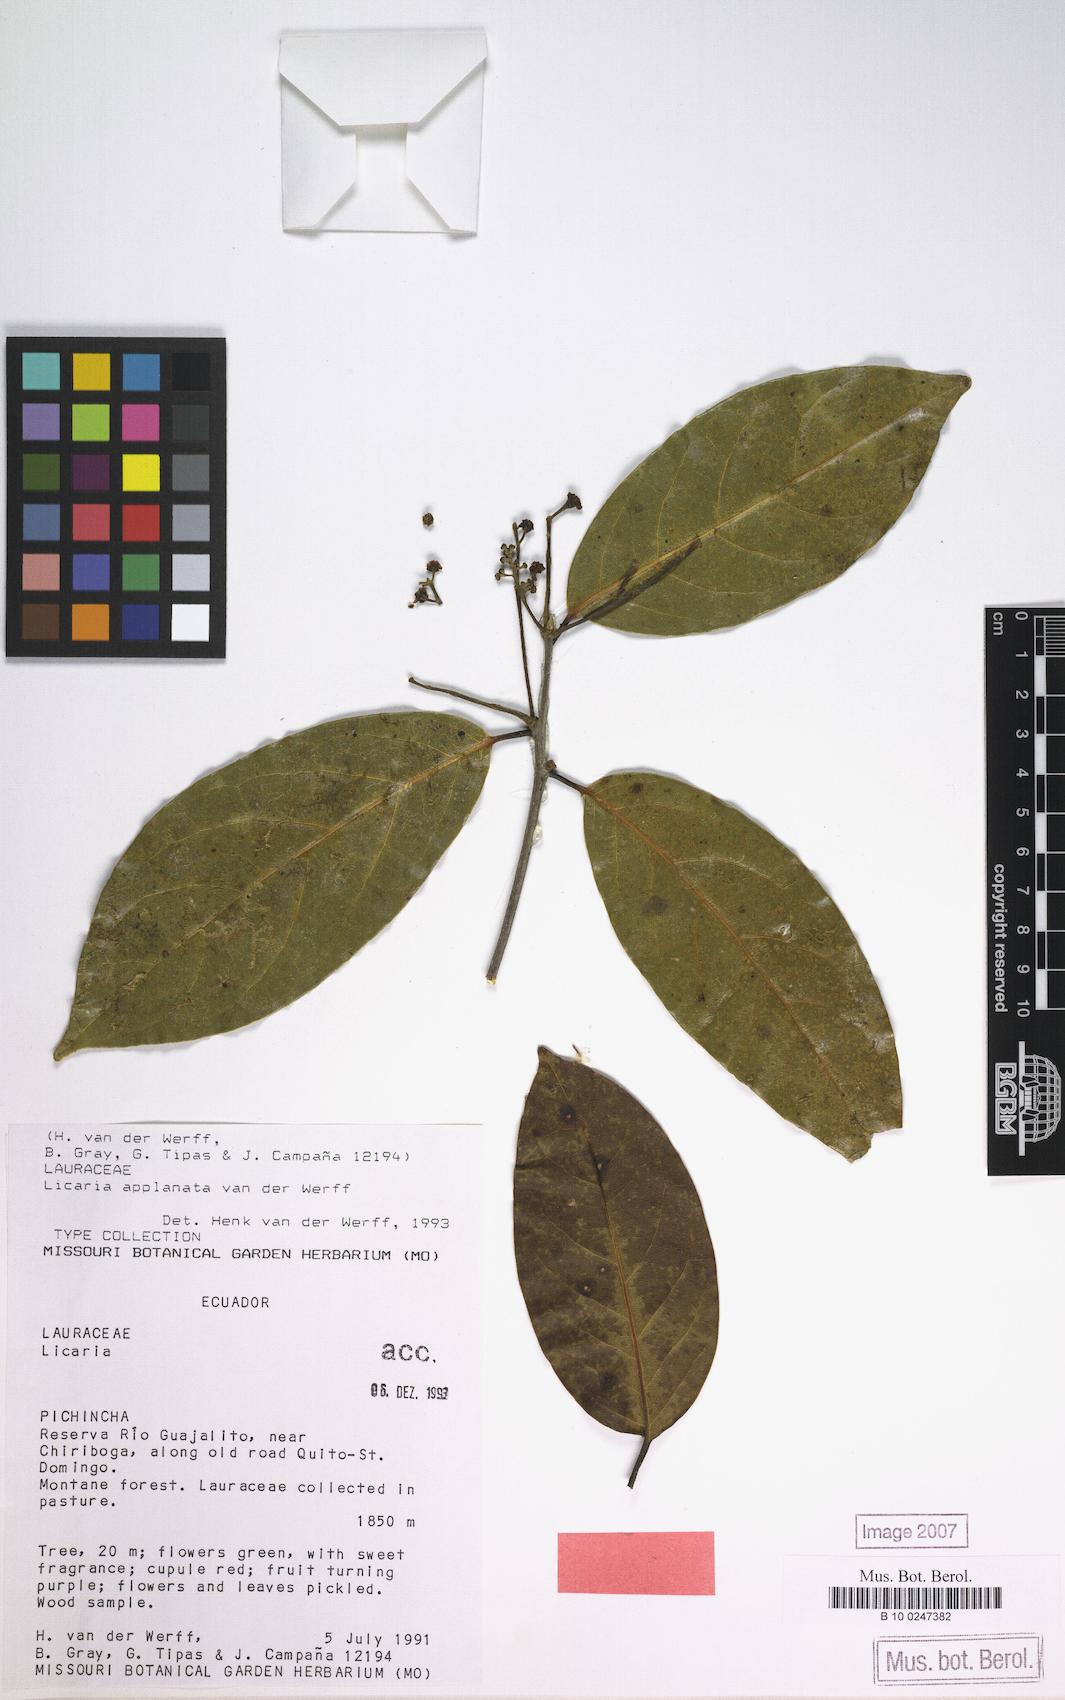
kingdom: Plantae
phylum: Tracheophyta
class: Magnoliopsida
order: Laurales
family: Lauraceae
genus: Licaria
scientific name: Licaria applanata
